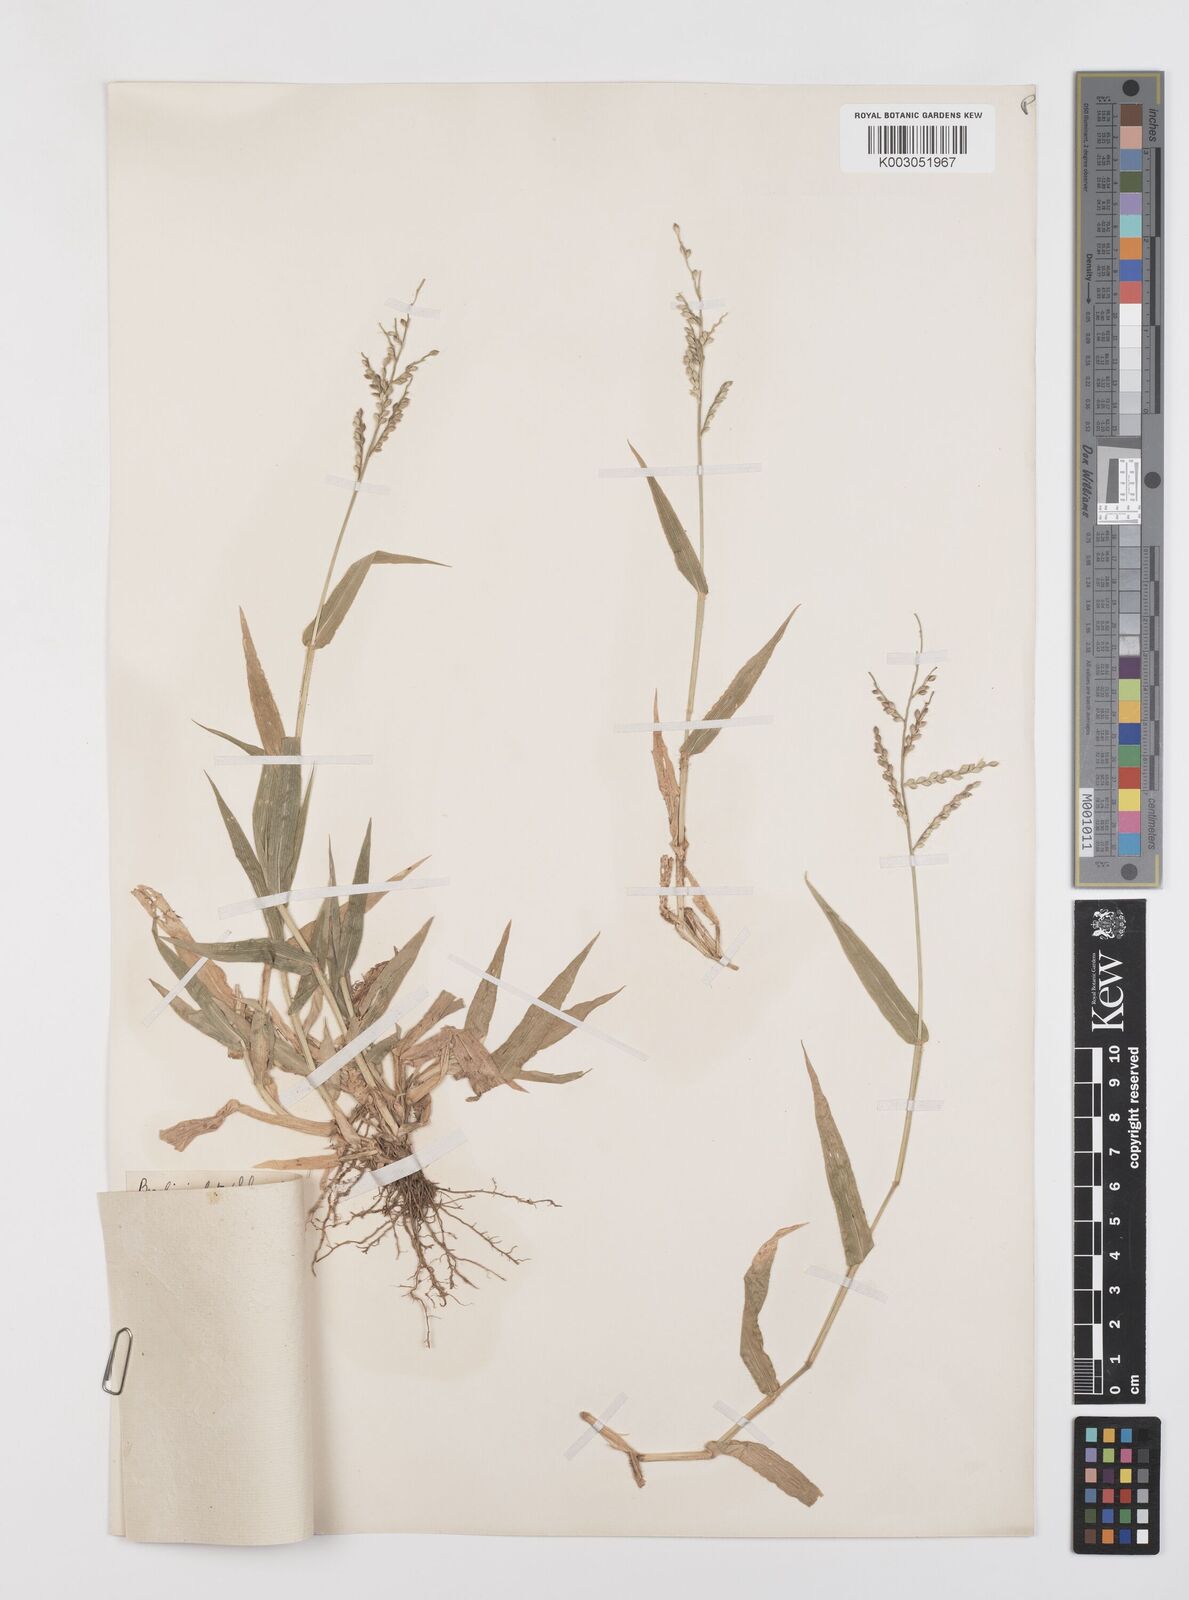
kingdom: Plantae
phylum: Tracheophyta
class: Liliopsida
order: Poales
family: Poaceae
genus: Urochloa
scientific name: Urochloa lata
